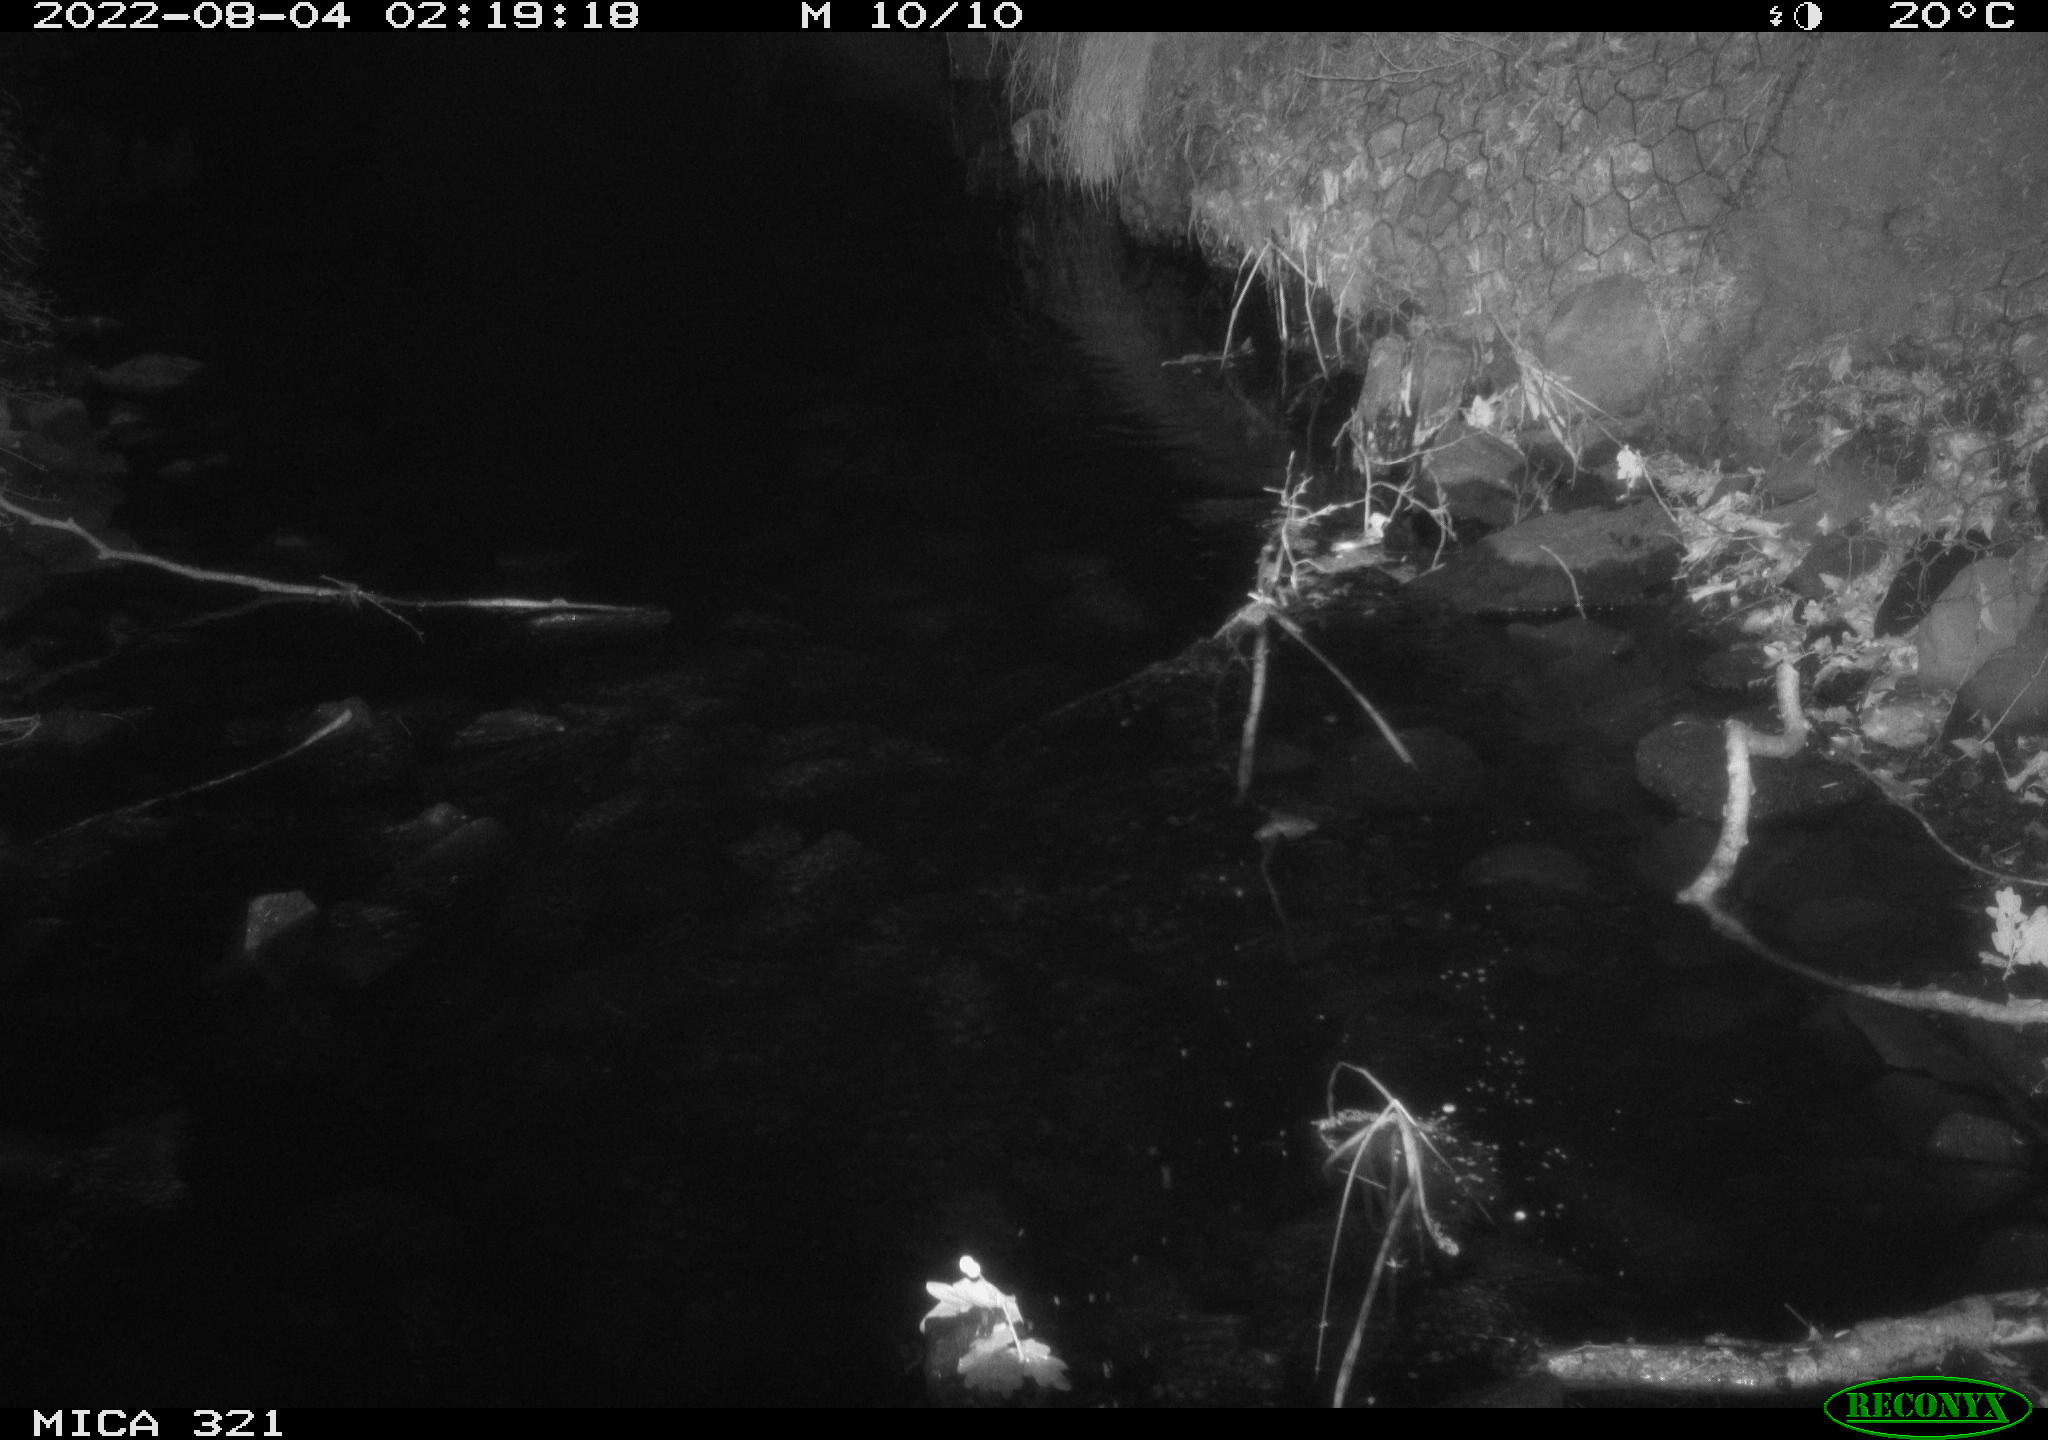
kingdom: Animalia
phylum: Chordata
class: Mammalia
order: Rodentia
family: Muridae
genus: Rattus
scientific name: Rattus norvegicus
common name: Brown rat
